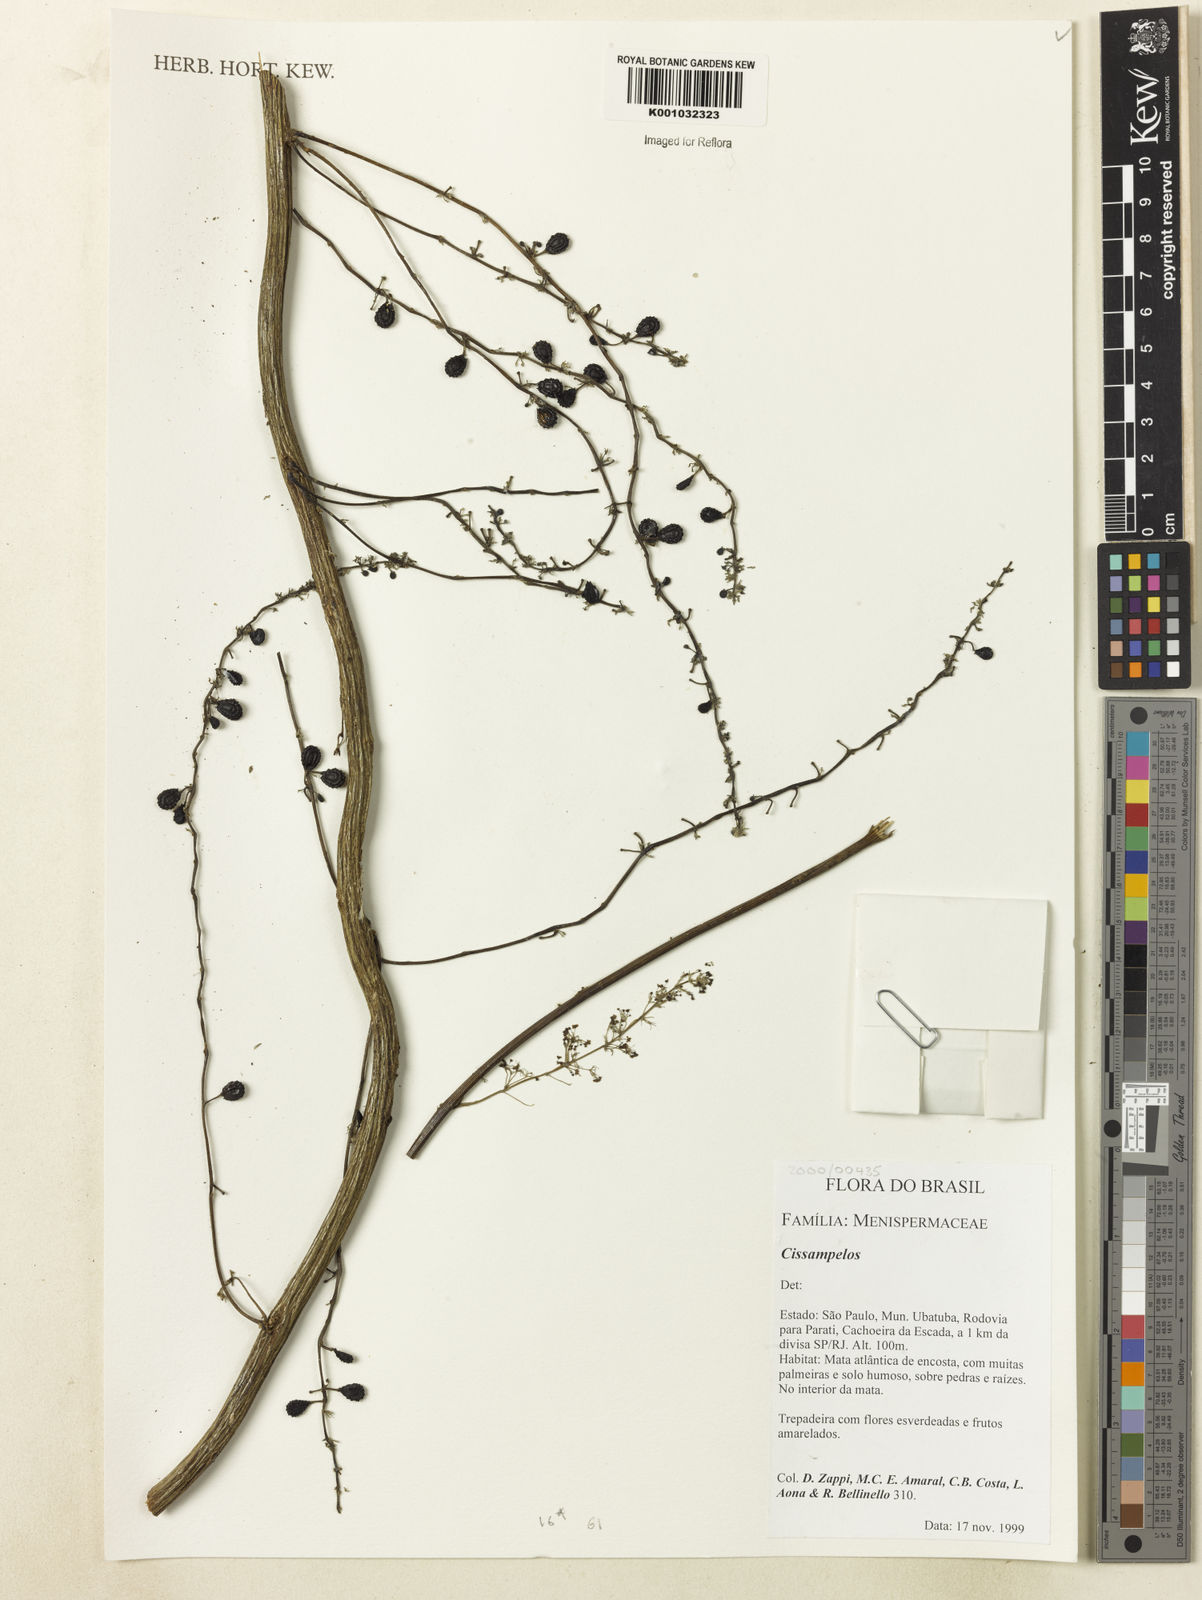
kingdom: Plantae
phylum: Tracheophyta
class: Magnoliopsida
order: Ranunculales
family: Menispermaceae
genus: Cissampelos
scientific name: Cissampelos
